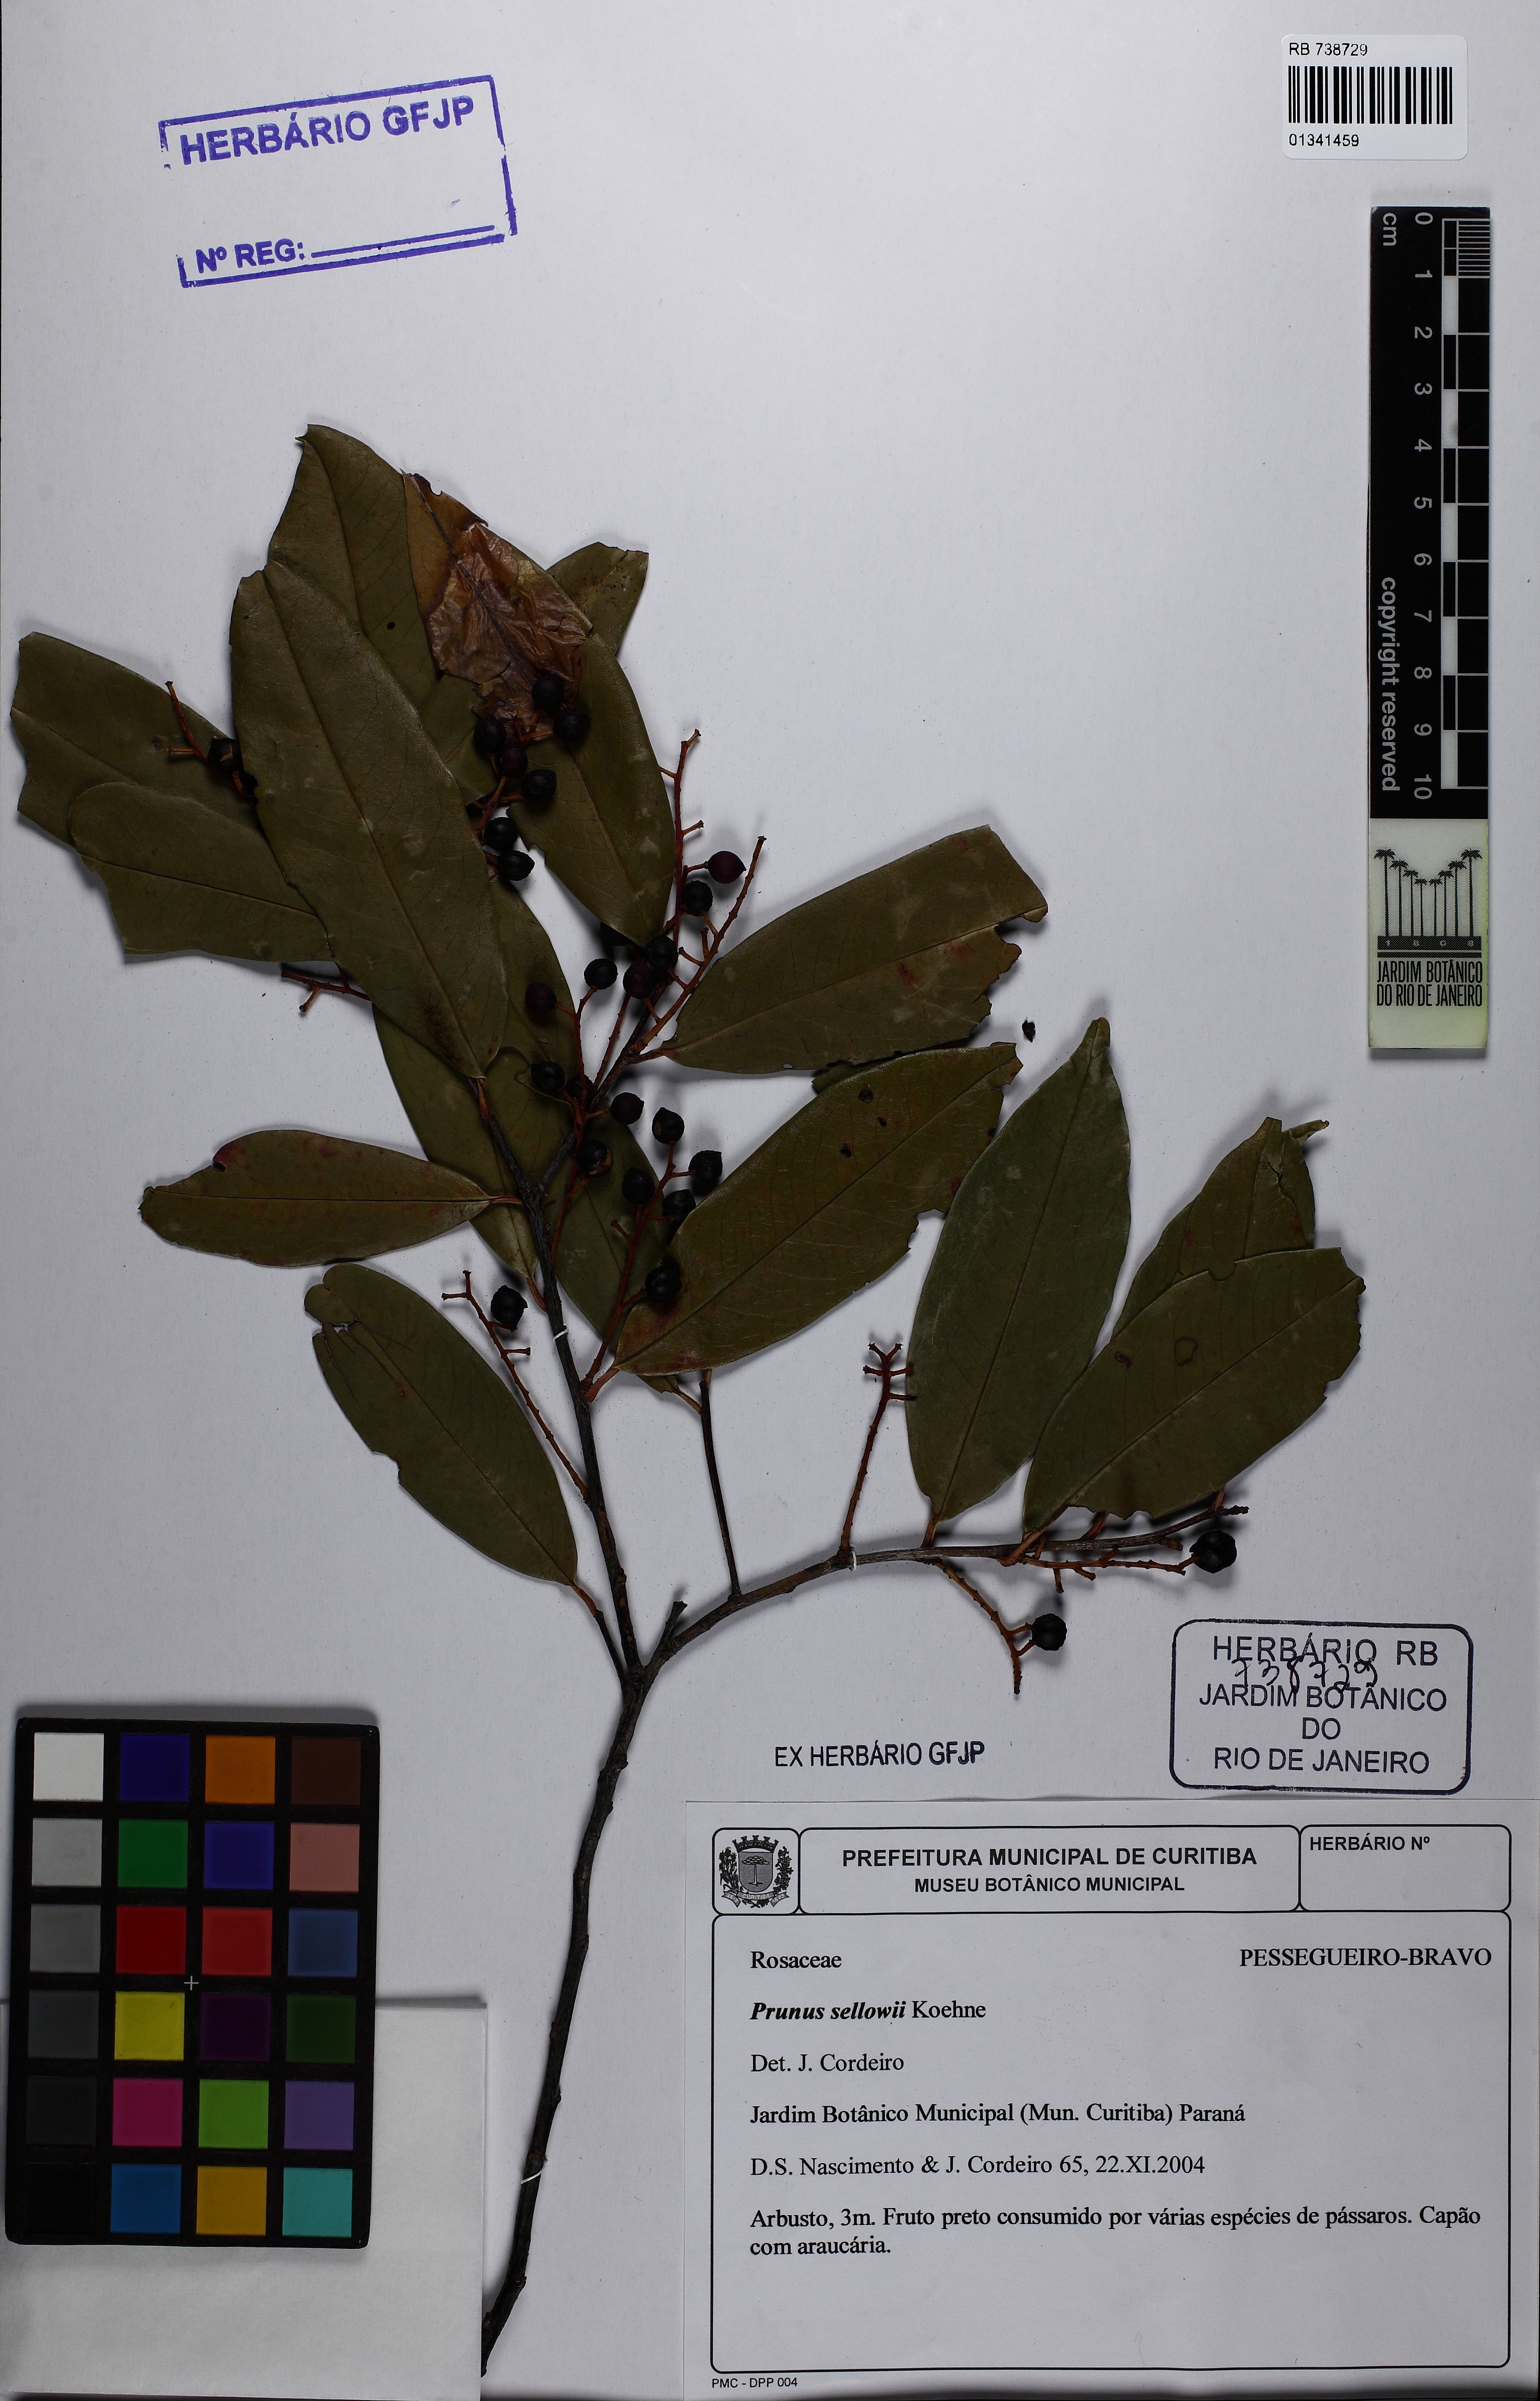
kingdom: Plantae
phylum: Tracheophyta
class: Magnoliopsida
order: Rosales
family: Rosaceae
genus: Prunus
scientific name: Prunus reflexa
